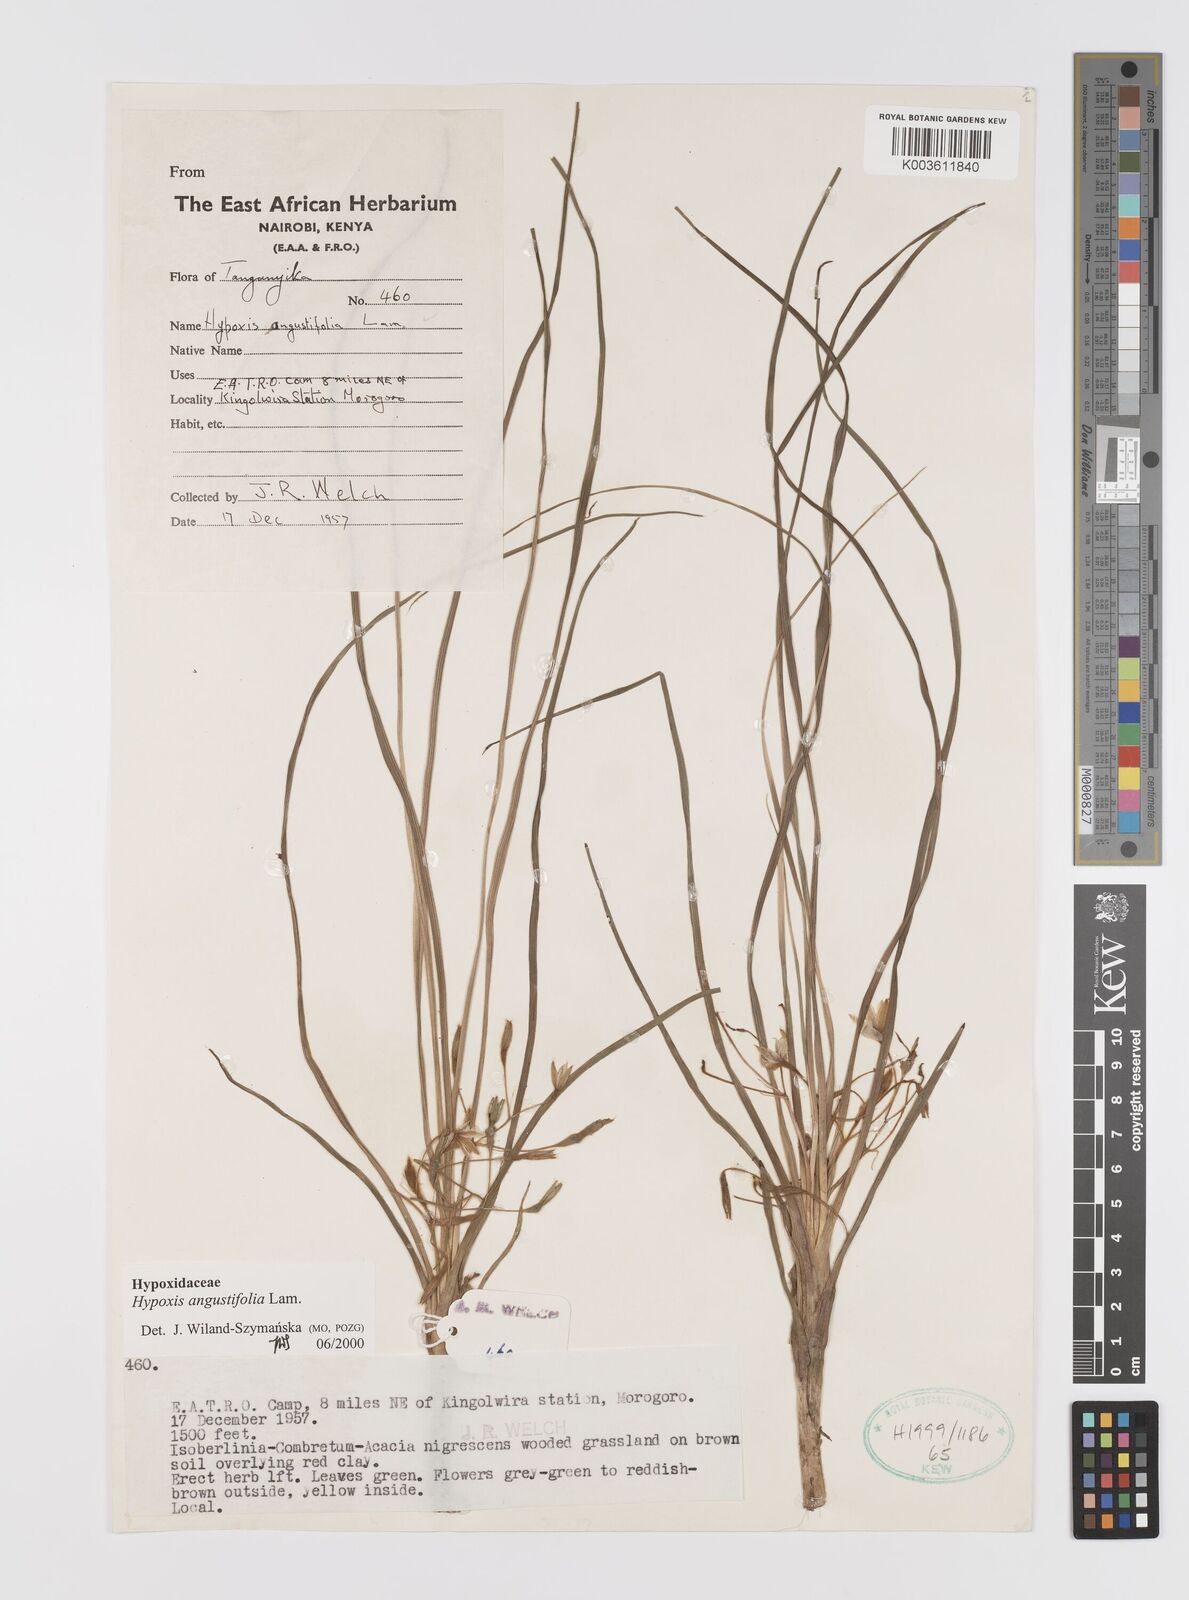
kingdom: Plantae
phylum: Tracheophyta
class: Liliopsida
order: Asparagales
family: Hypoxidaceae
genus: Hypoxis
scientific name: Hypoxis angustifolia
